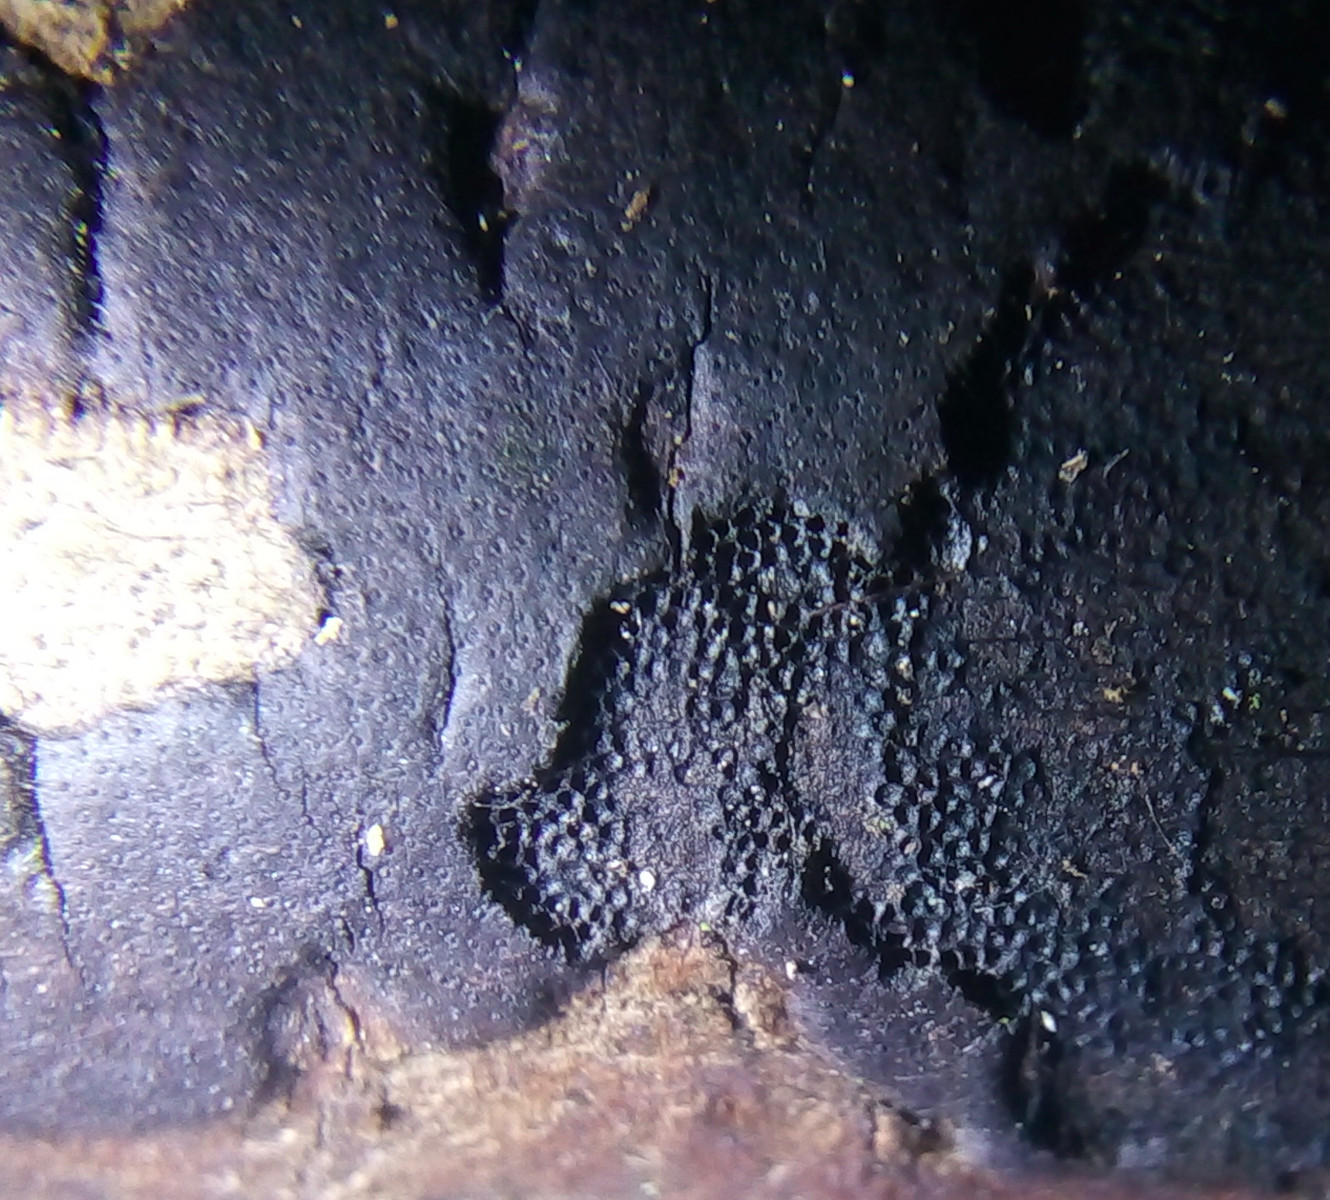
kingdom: Fungi
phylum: Ascomycota
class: Sordariomycetes
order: Xylariales
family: Diatrypaceae
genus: Diatrype
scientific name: Diatrype decorticata
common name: barksprænger-kulskorpe
